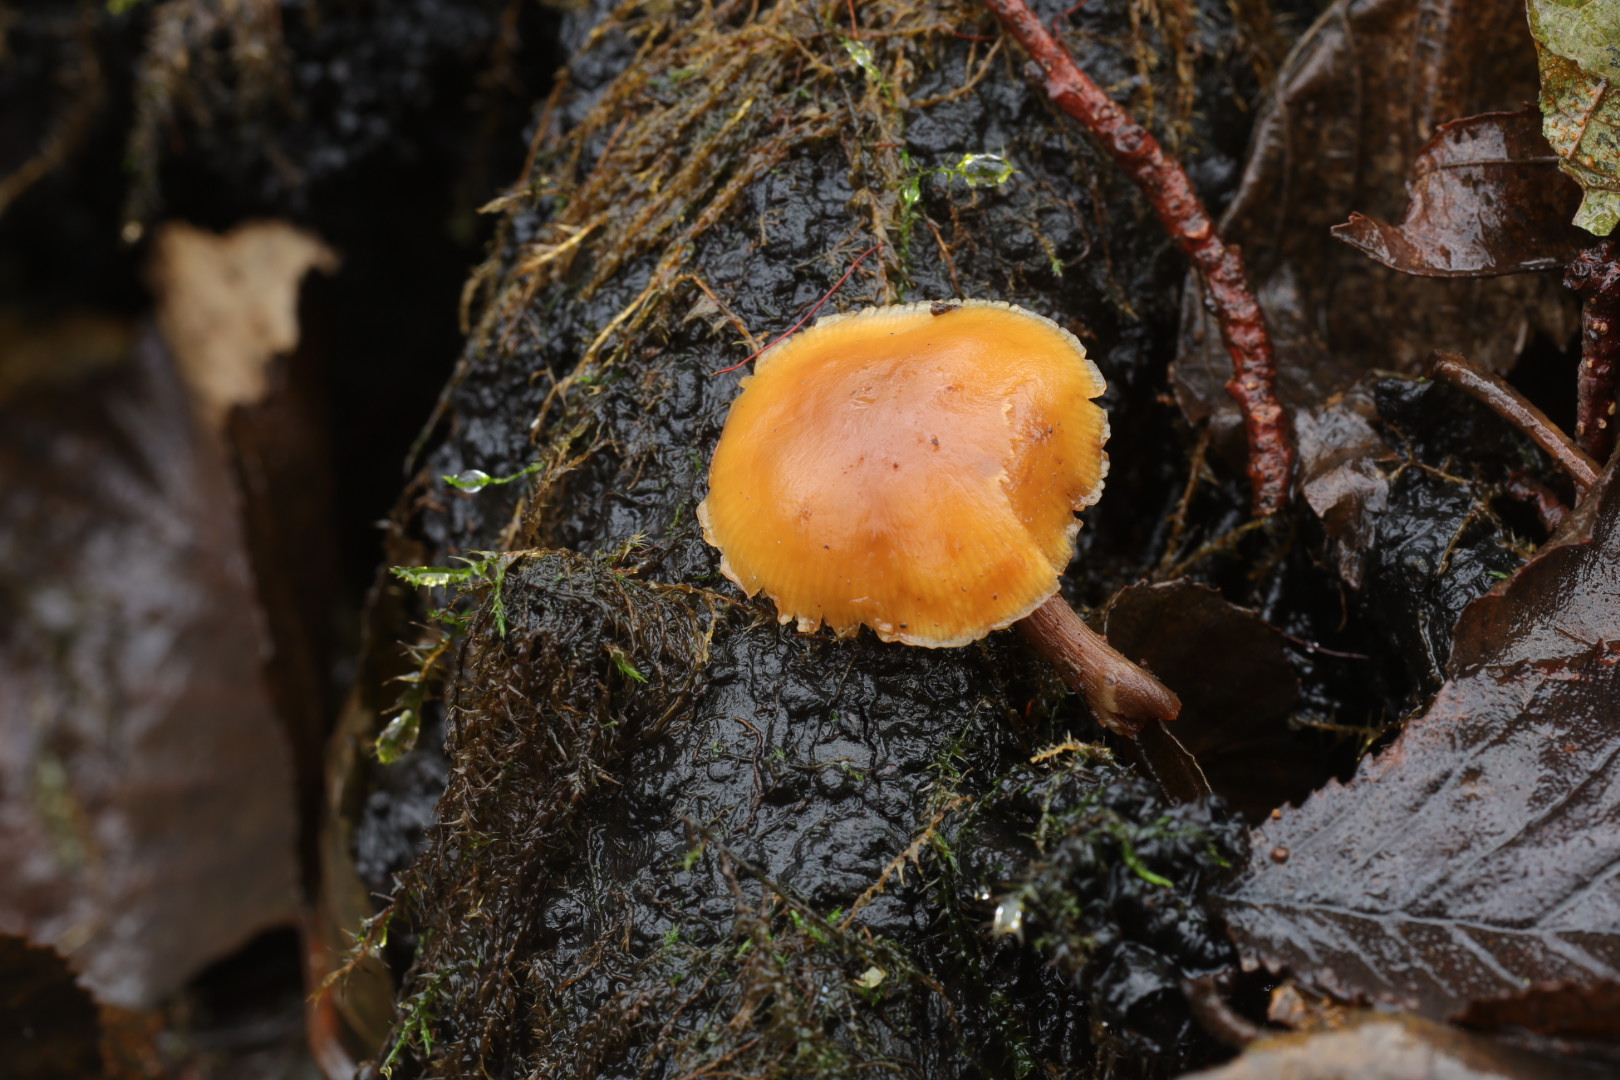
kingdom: Fungi
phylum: Basidiomycota
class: Agaricomycetes
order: Agaricales
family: Hymenogastraceae
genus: Galerina
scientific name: Galerina marginata
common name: randbæltet hjelmhat
